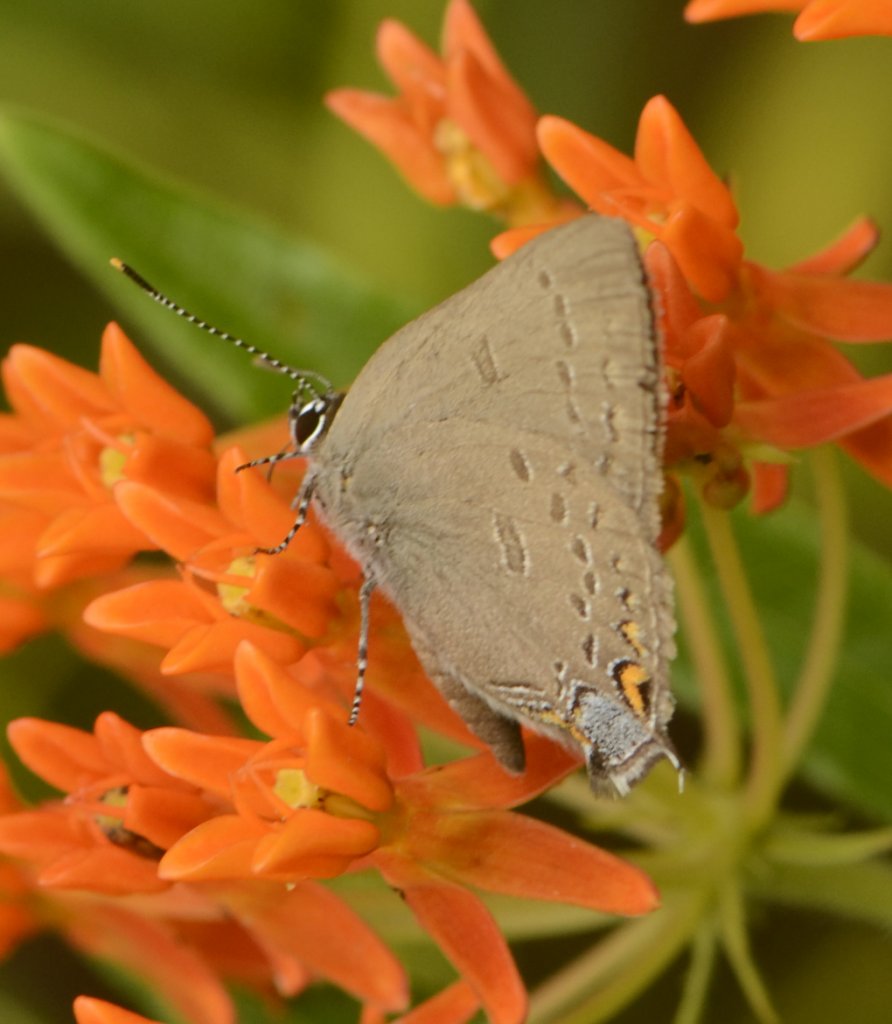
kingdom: Animalia
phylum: Arthropoda
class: Insecta
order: Lepidoptera
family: Lycaenidae
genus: Satyrium
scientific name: Satyrium edwardsii
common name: Edwards' Hairstreak
